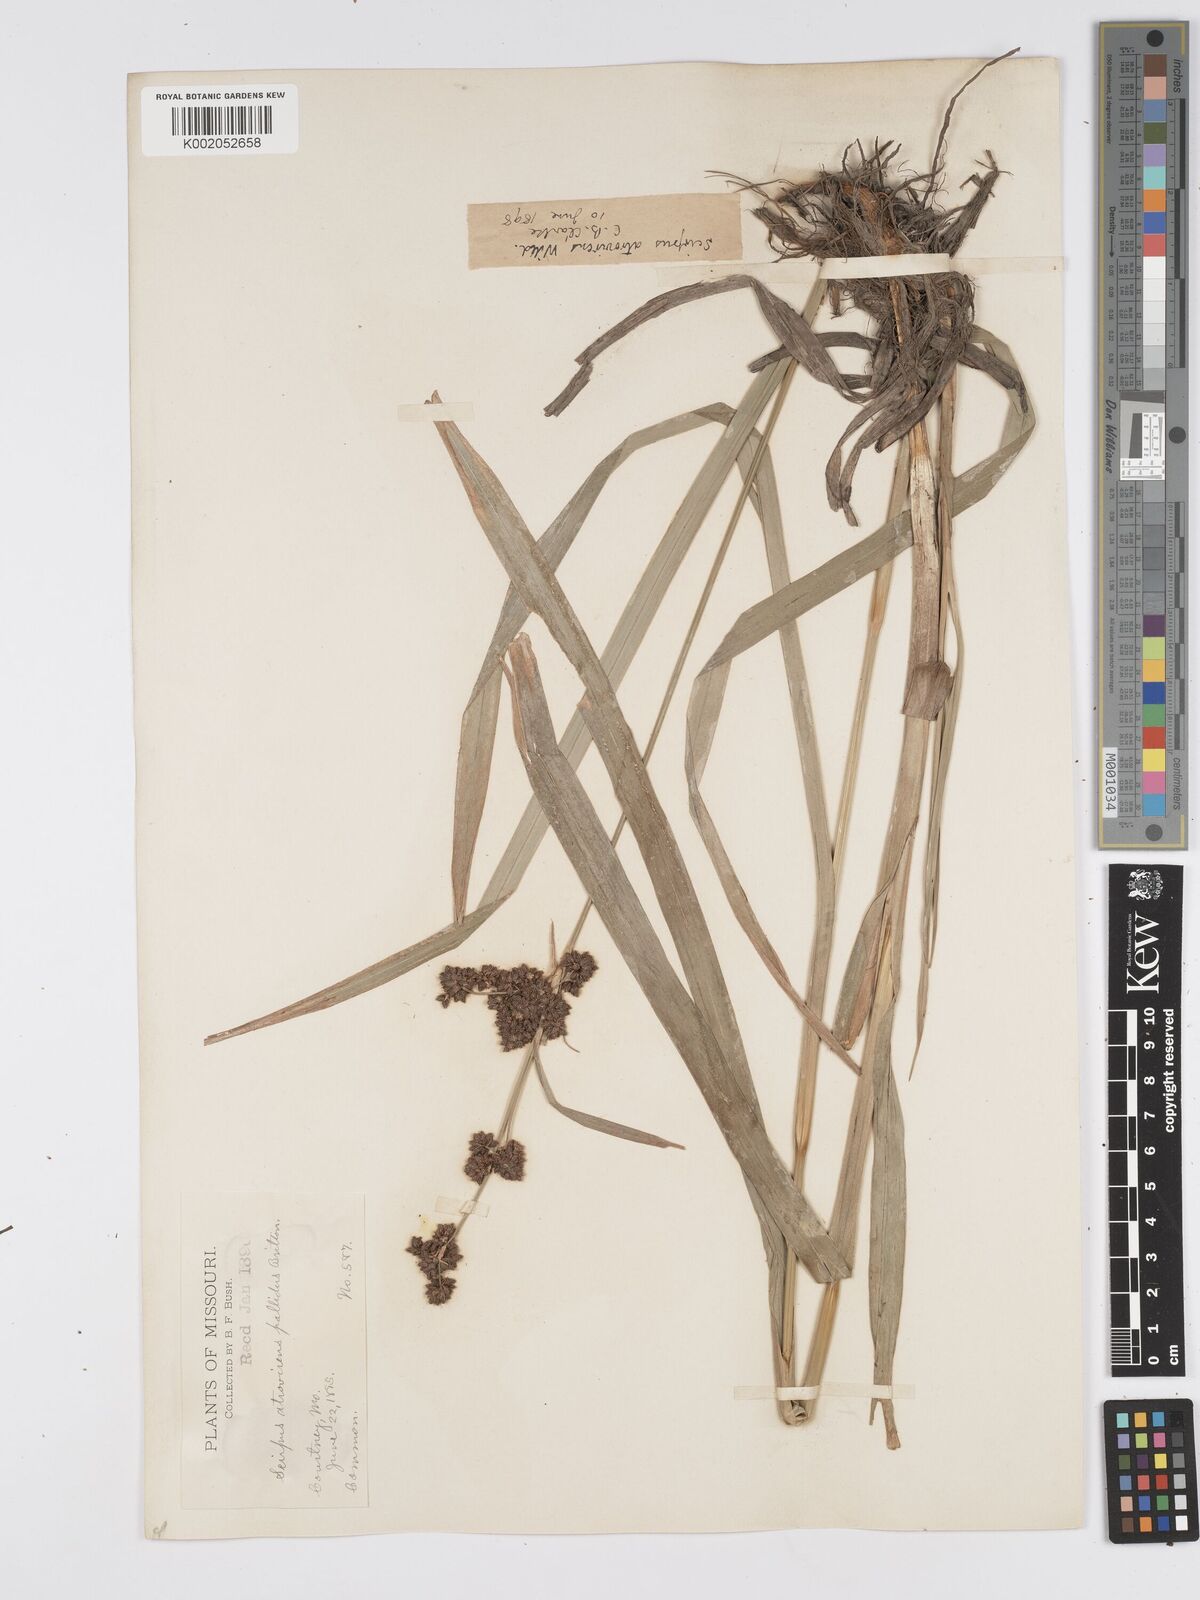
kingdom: Plantae
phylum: Tracheophyta
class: Liliopsida
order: Poales
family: Cyperaceae
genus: Scirpus
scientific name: Scirpus atrovirens
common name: Black bulrush
